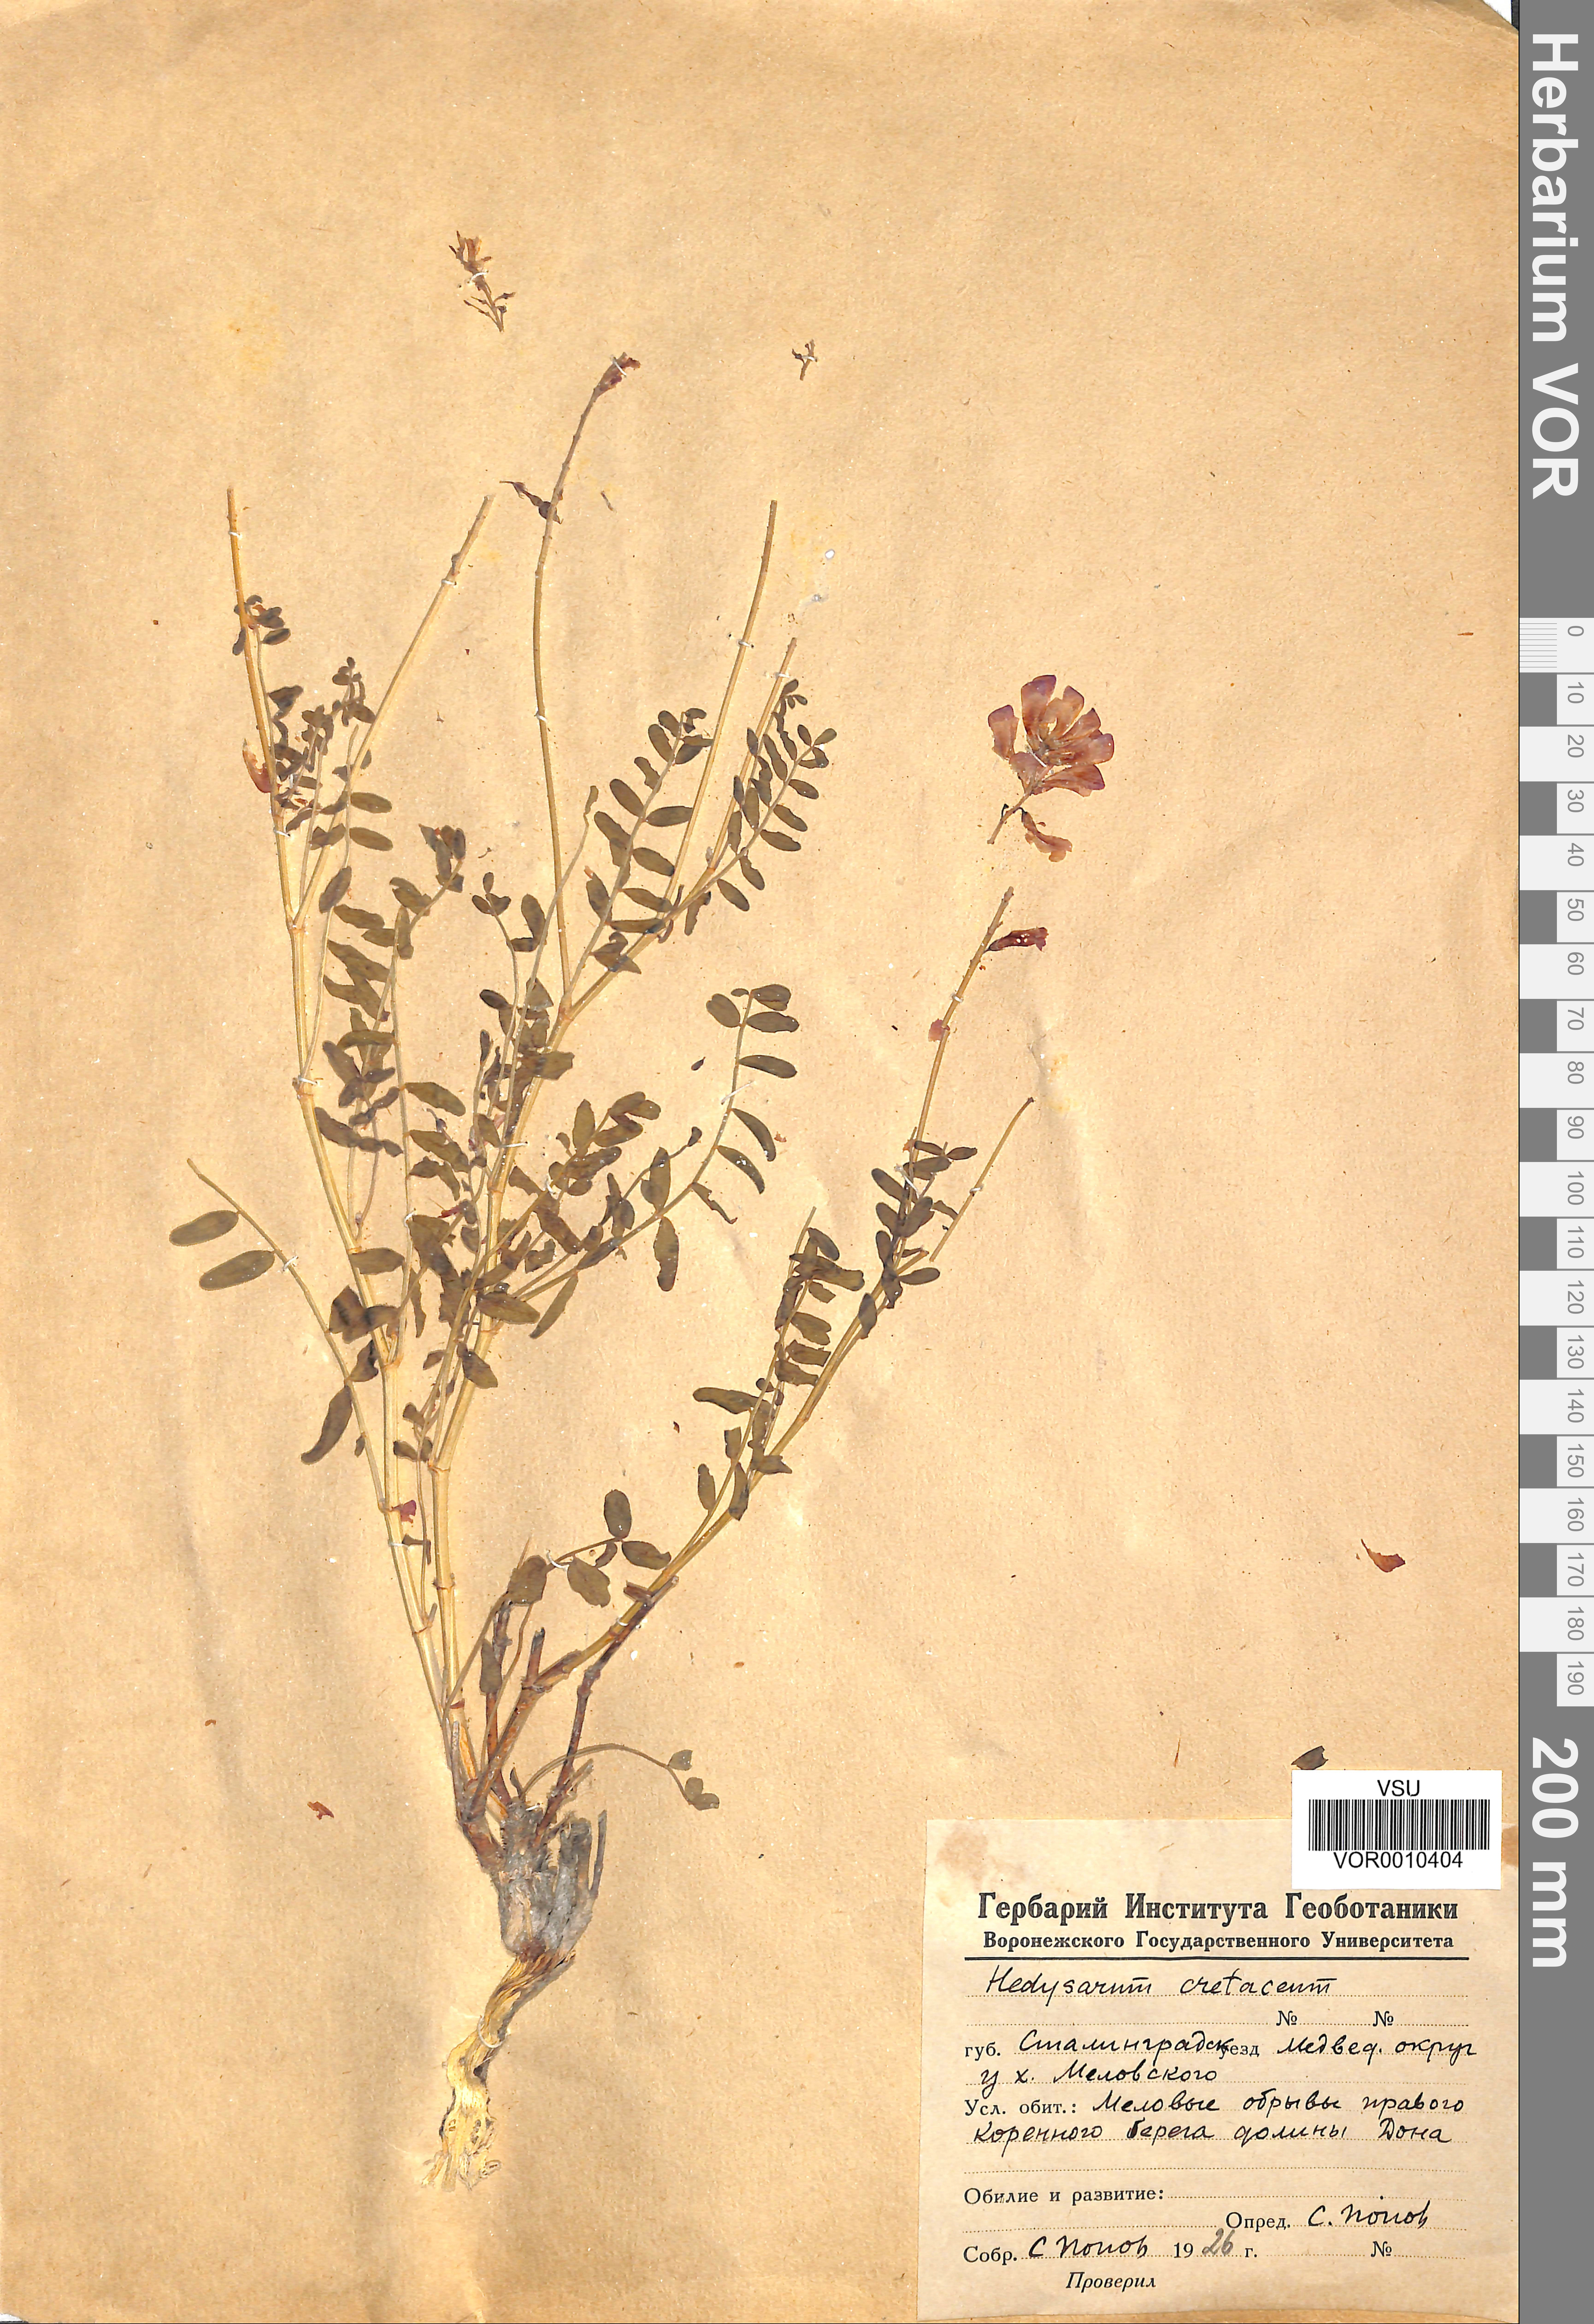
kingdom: Plantae
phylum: Tracheophyta
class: Magnoliopsida
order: Fabales
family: Fabaceae
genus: Hedysarum
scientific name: Hedysarum cretaceum
